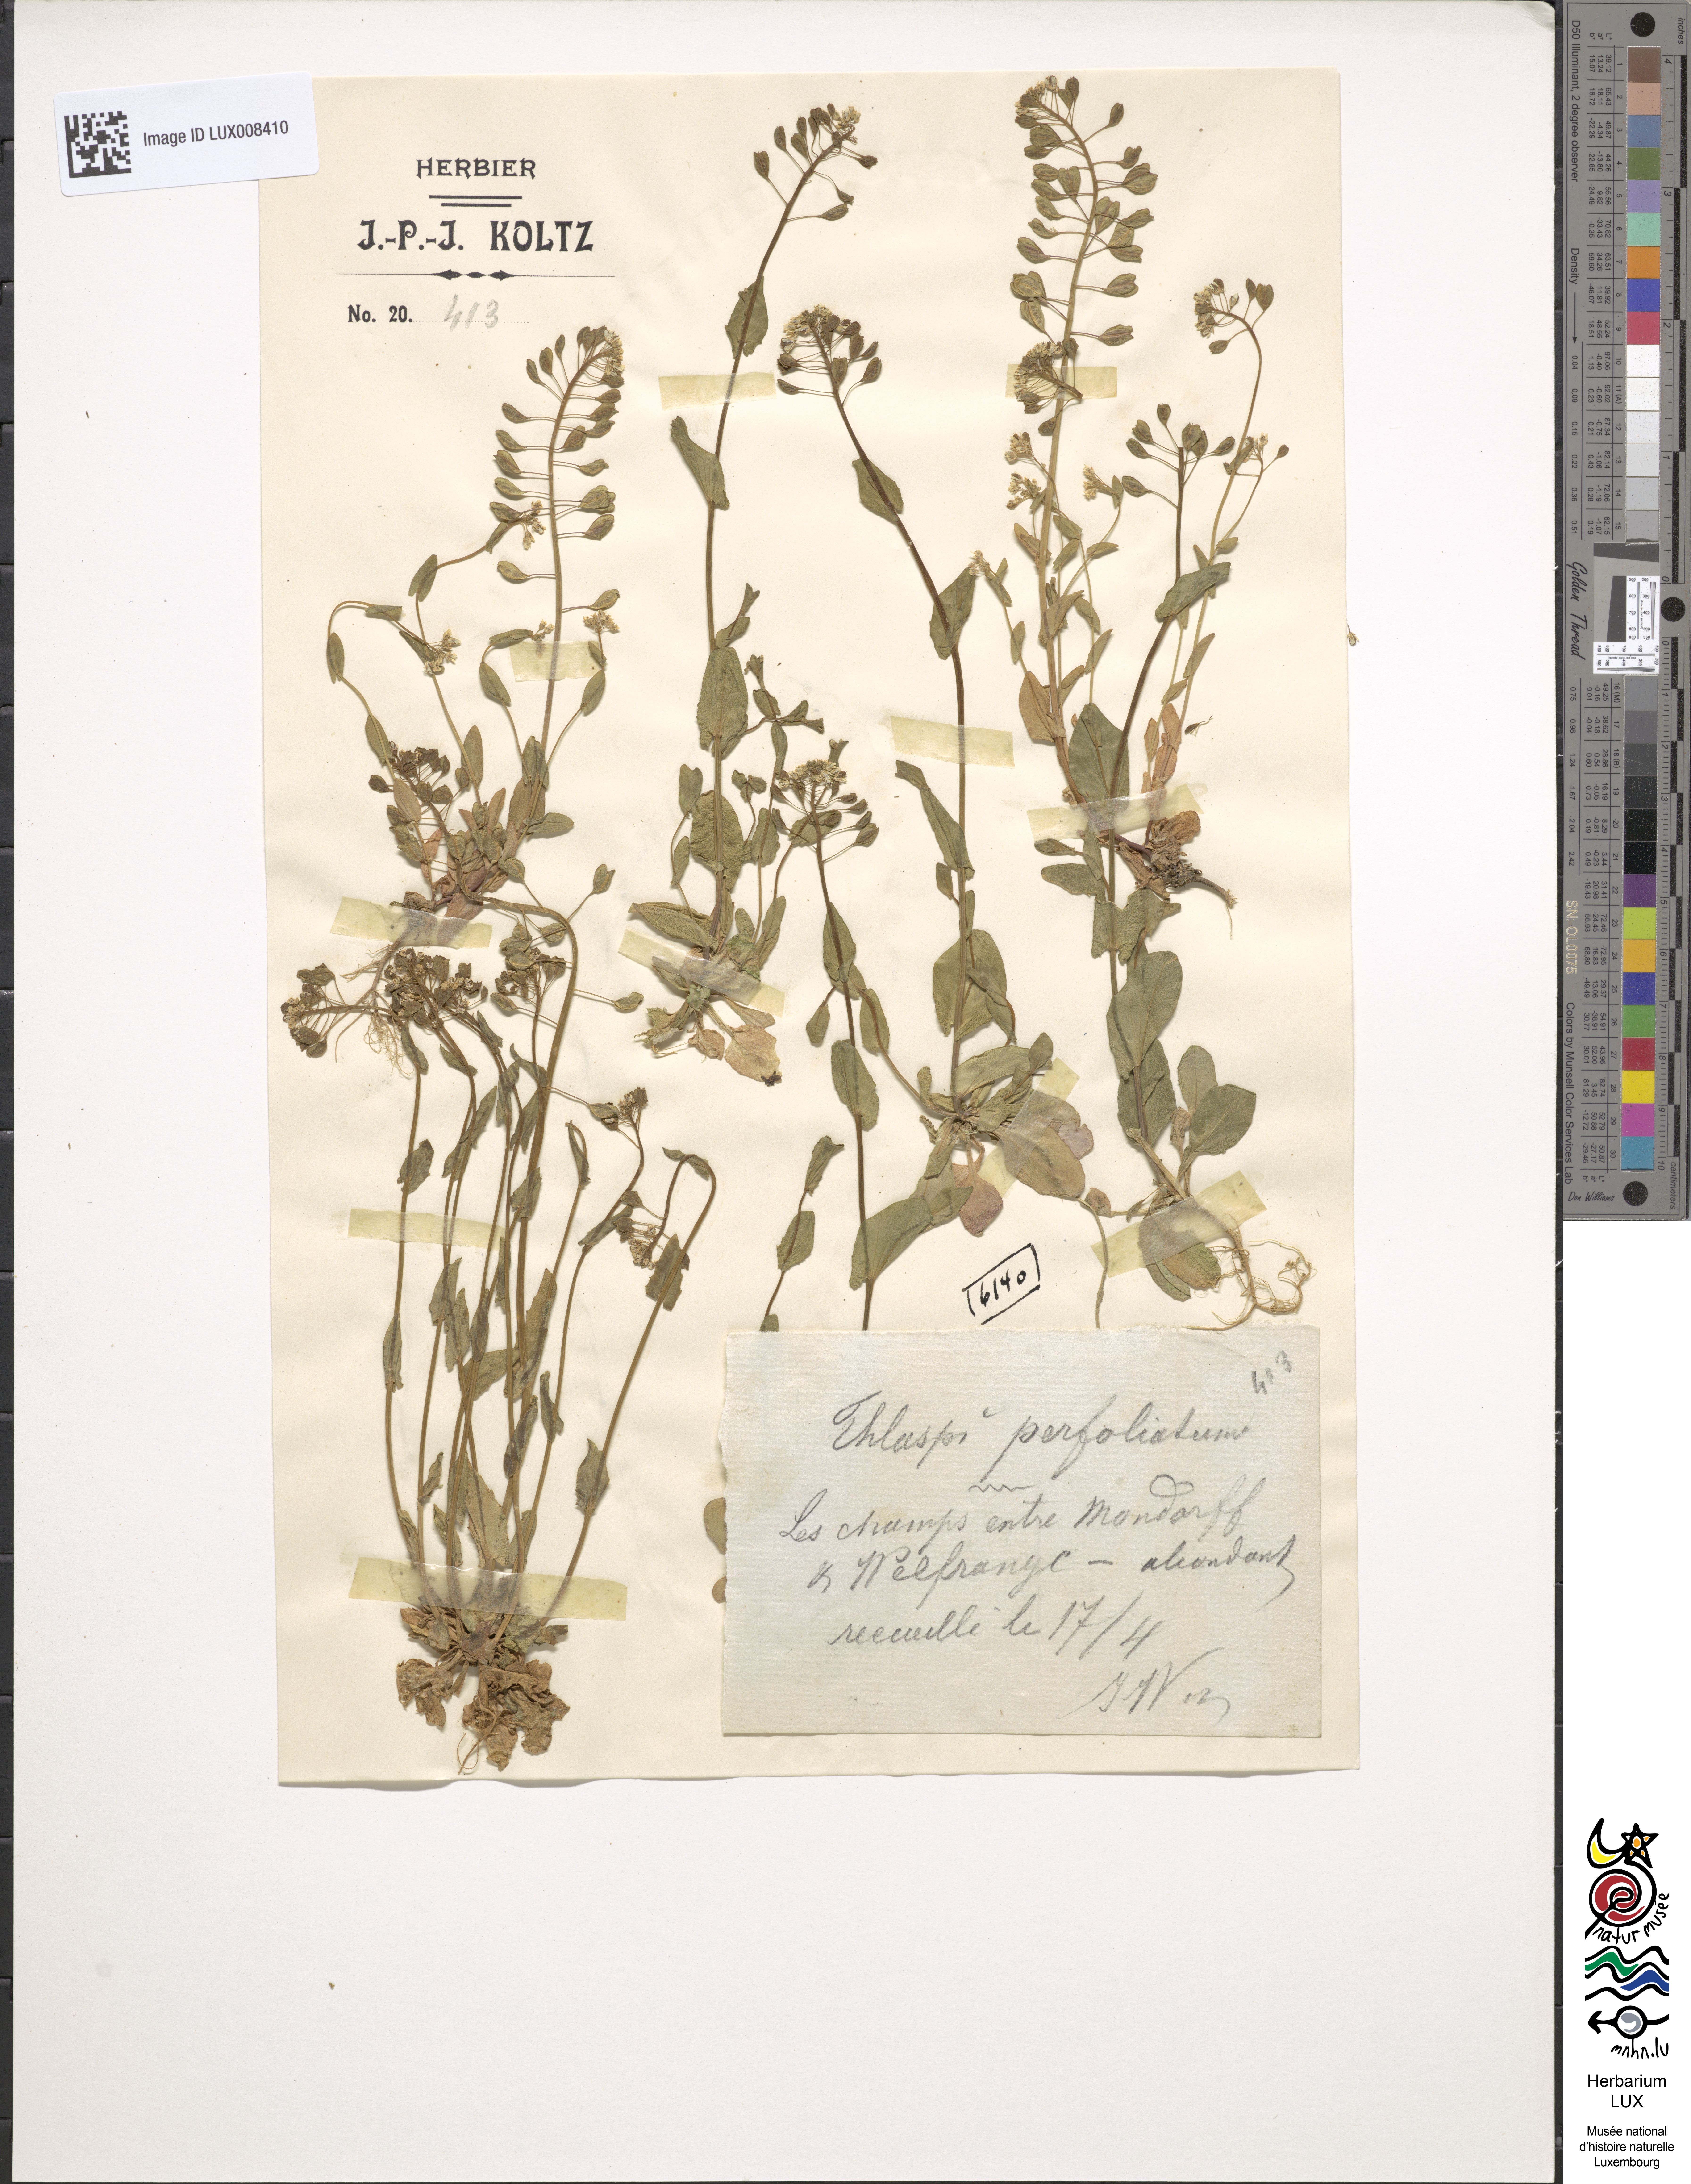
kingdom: Plantae
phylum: Tracheophyta
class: Magnoliopsida
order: Brassicales
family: Brassicaceae
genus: Noccaea
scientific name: Noccaea perfoliata
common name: Perfoliate pennycress
